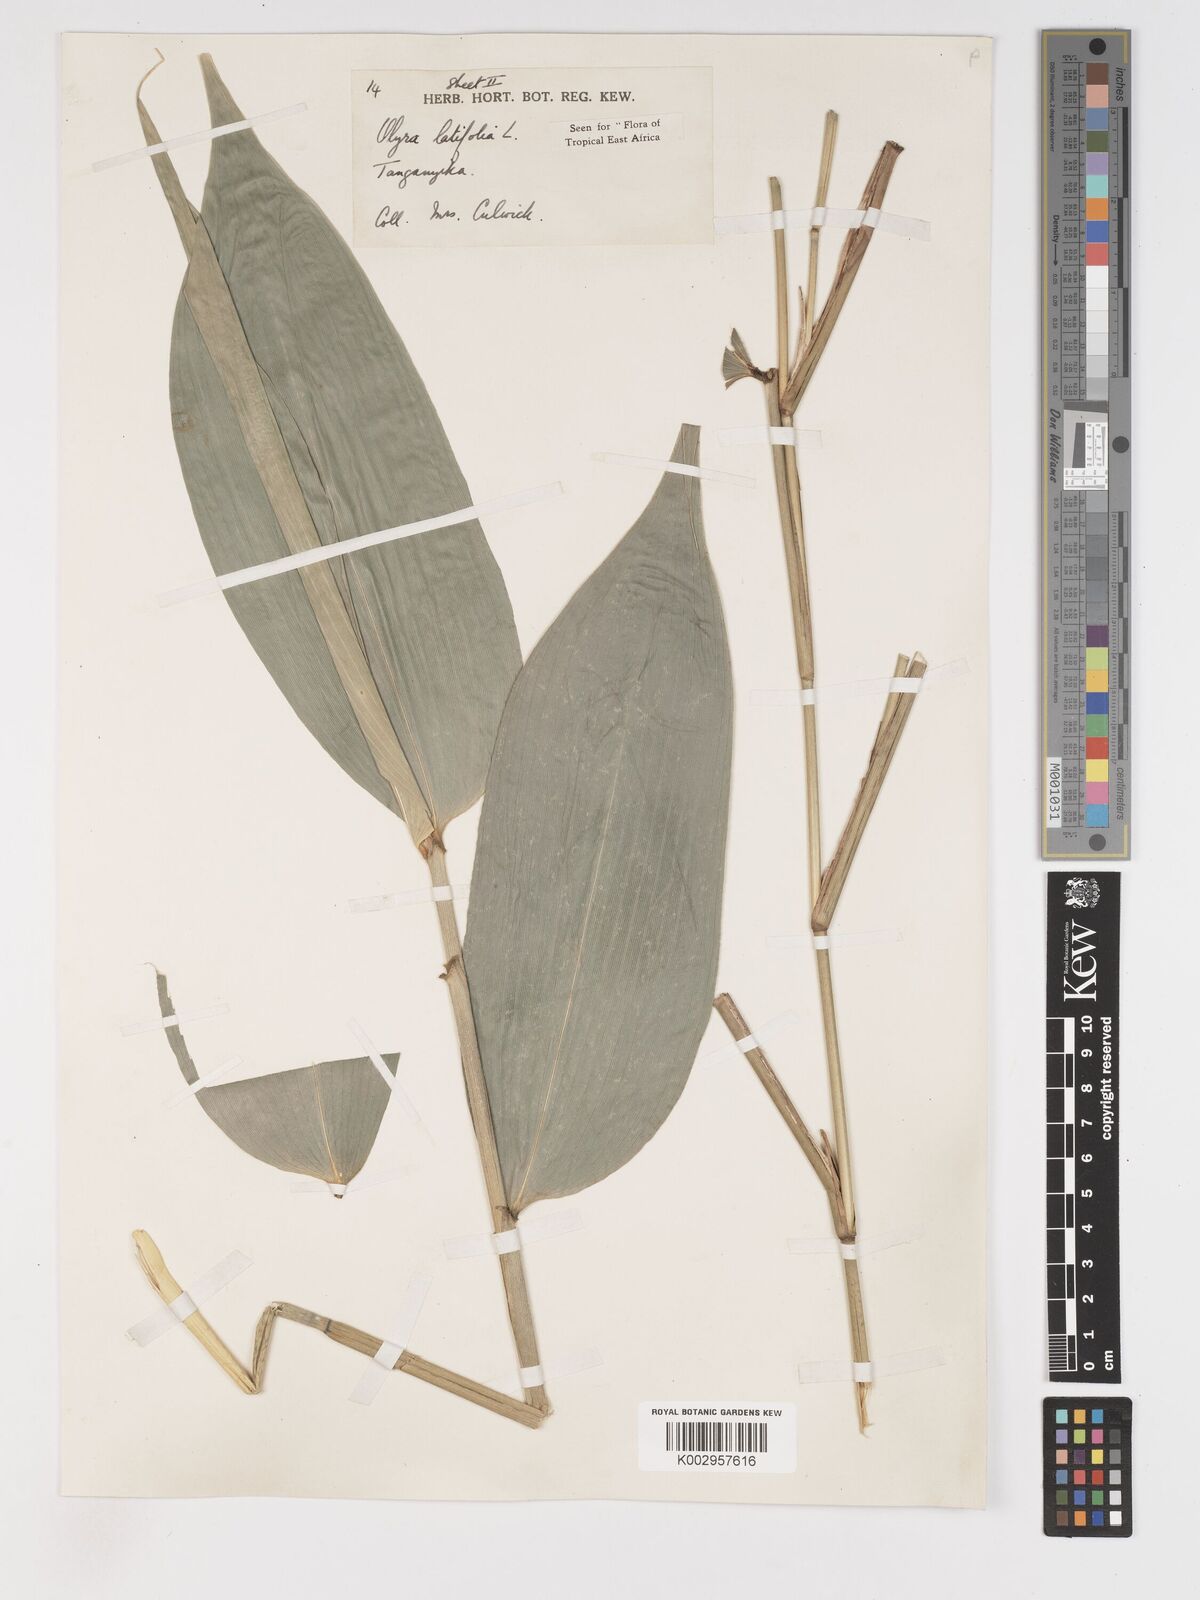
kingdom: Plantae
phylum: Tracheophyta
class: Liliopsida
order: Poales
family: Poaceae
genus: Olyra
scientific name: Olyra latifolia
